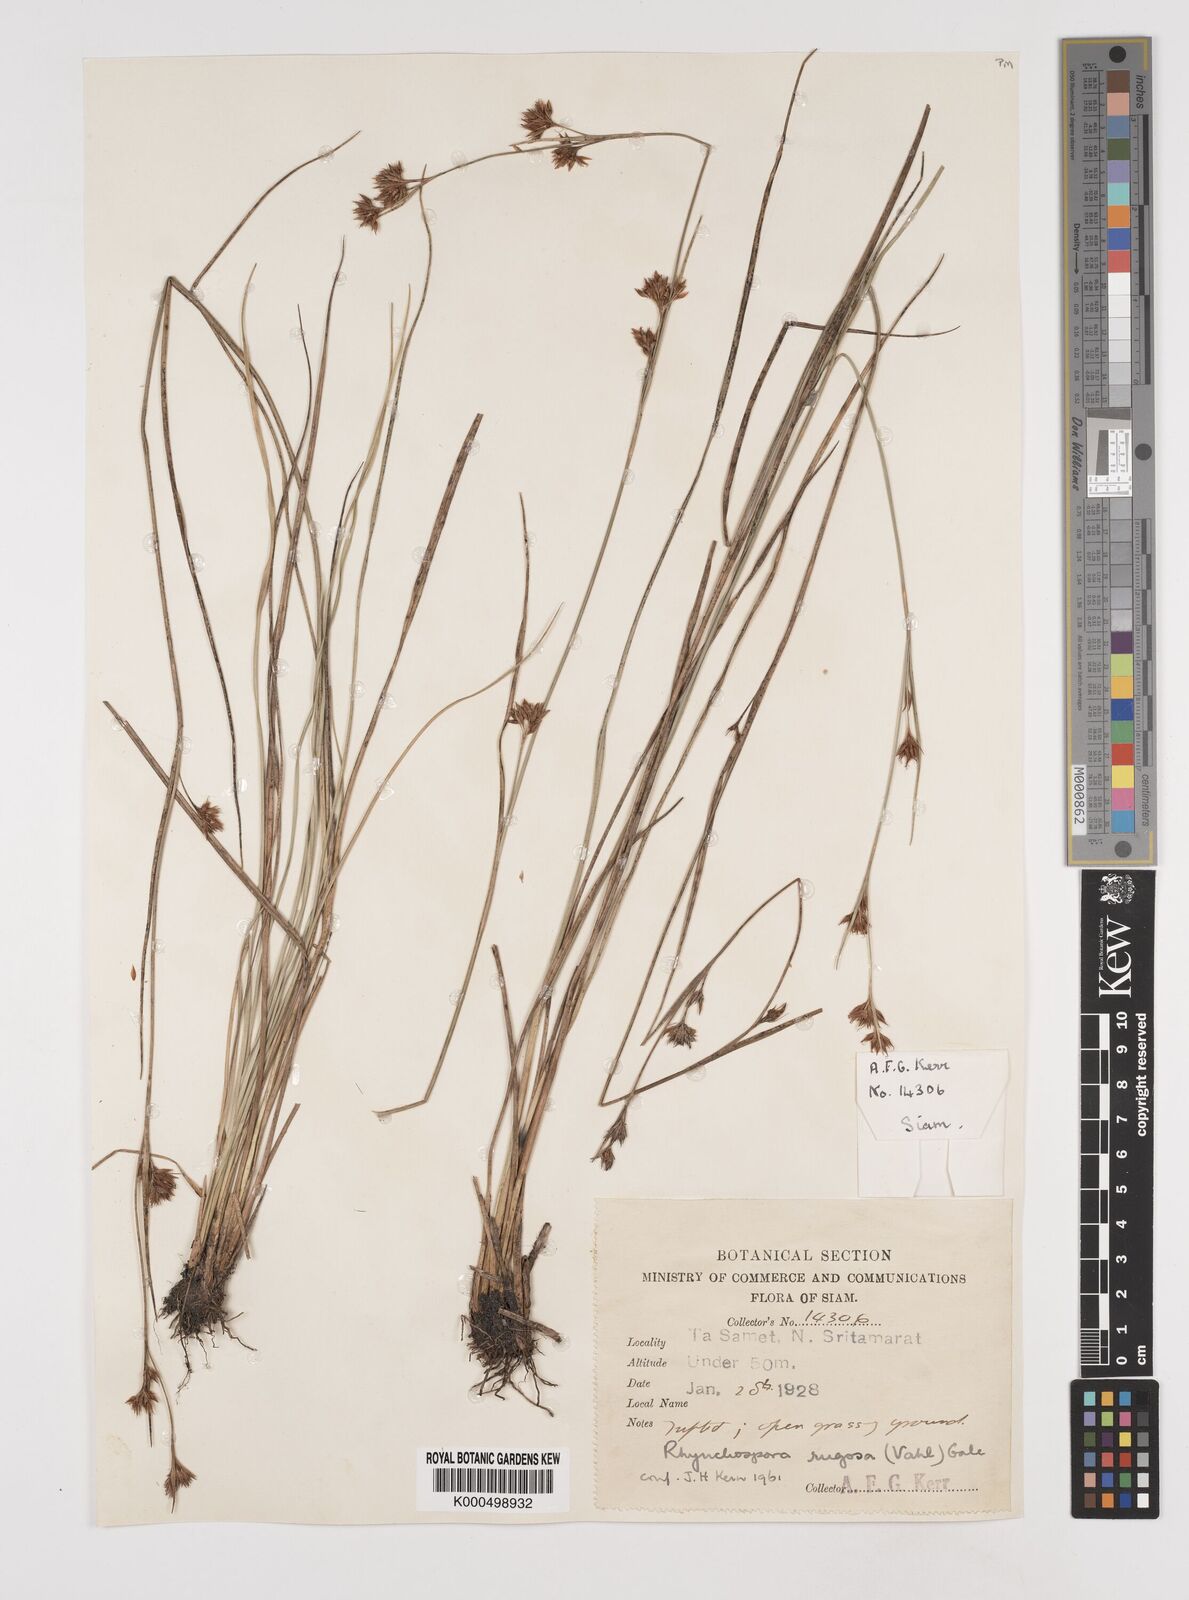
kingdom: Plantae
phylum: Tracheophyta
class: Liliopsida
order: Poales
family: Cyperaceae
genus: Rhynchospora
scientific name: Rhynchospora chinensis
